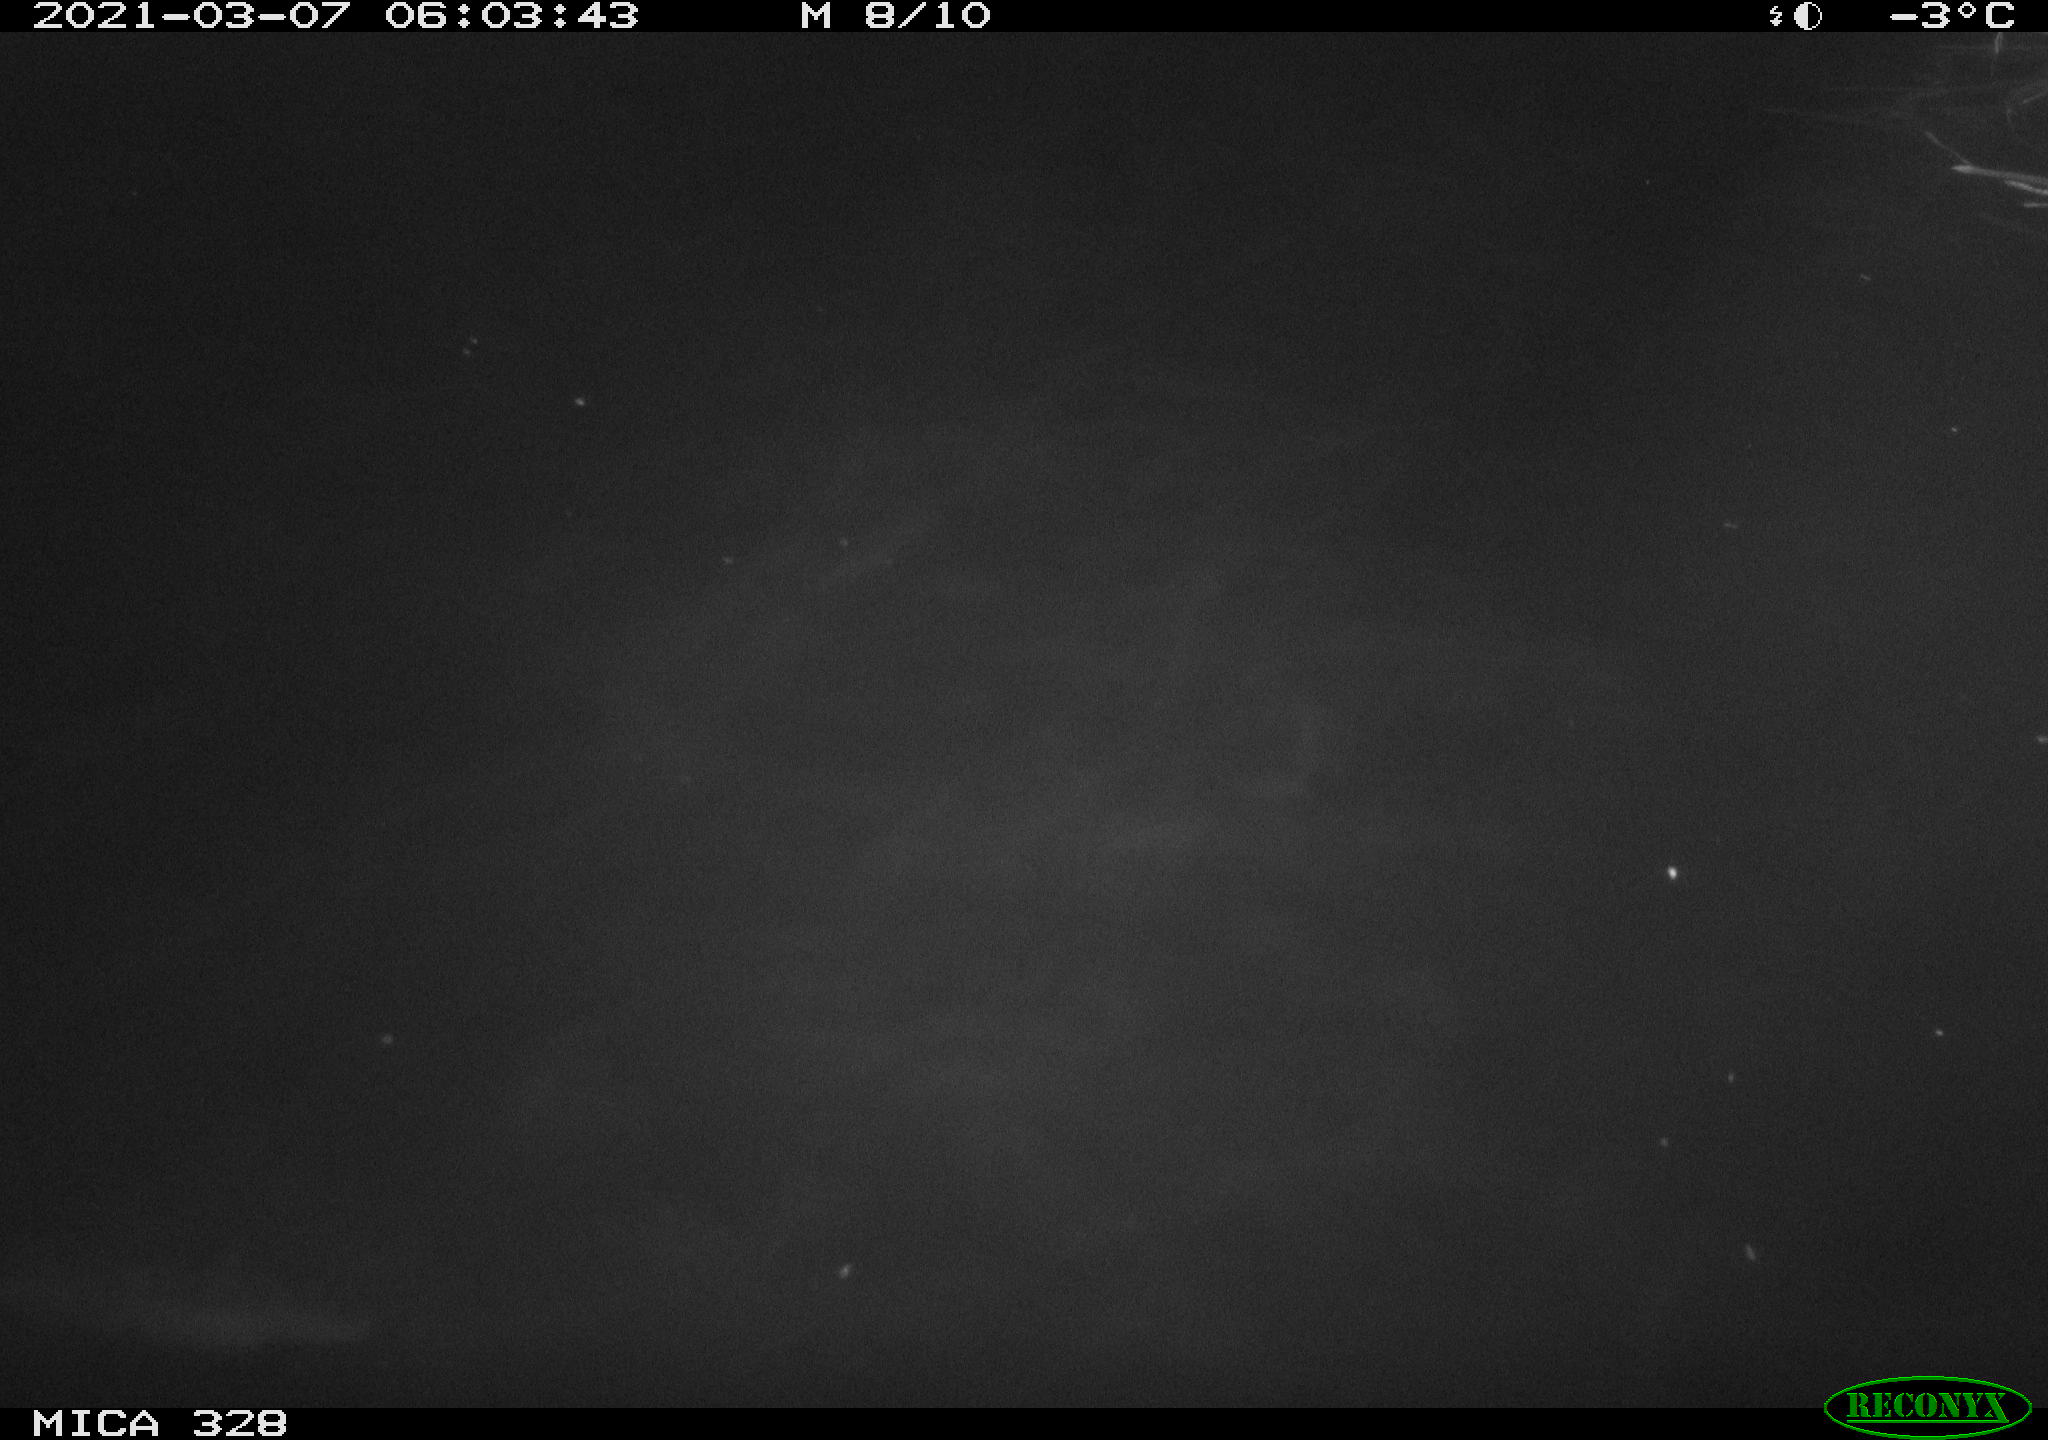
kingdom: Animalia
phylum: Chordata
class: Mammalia
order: Rodentia
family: Cricetidae
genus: Ondatra
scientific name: Ondatra zibethicus
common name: Muskrat
